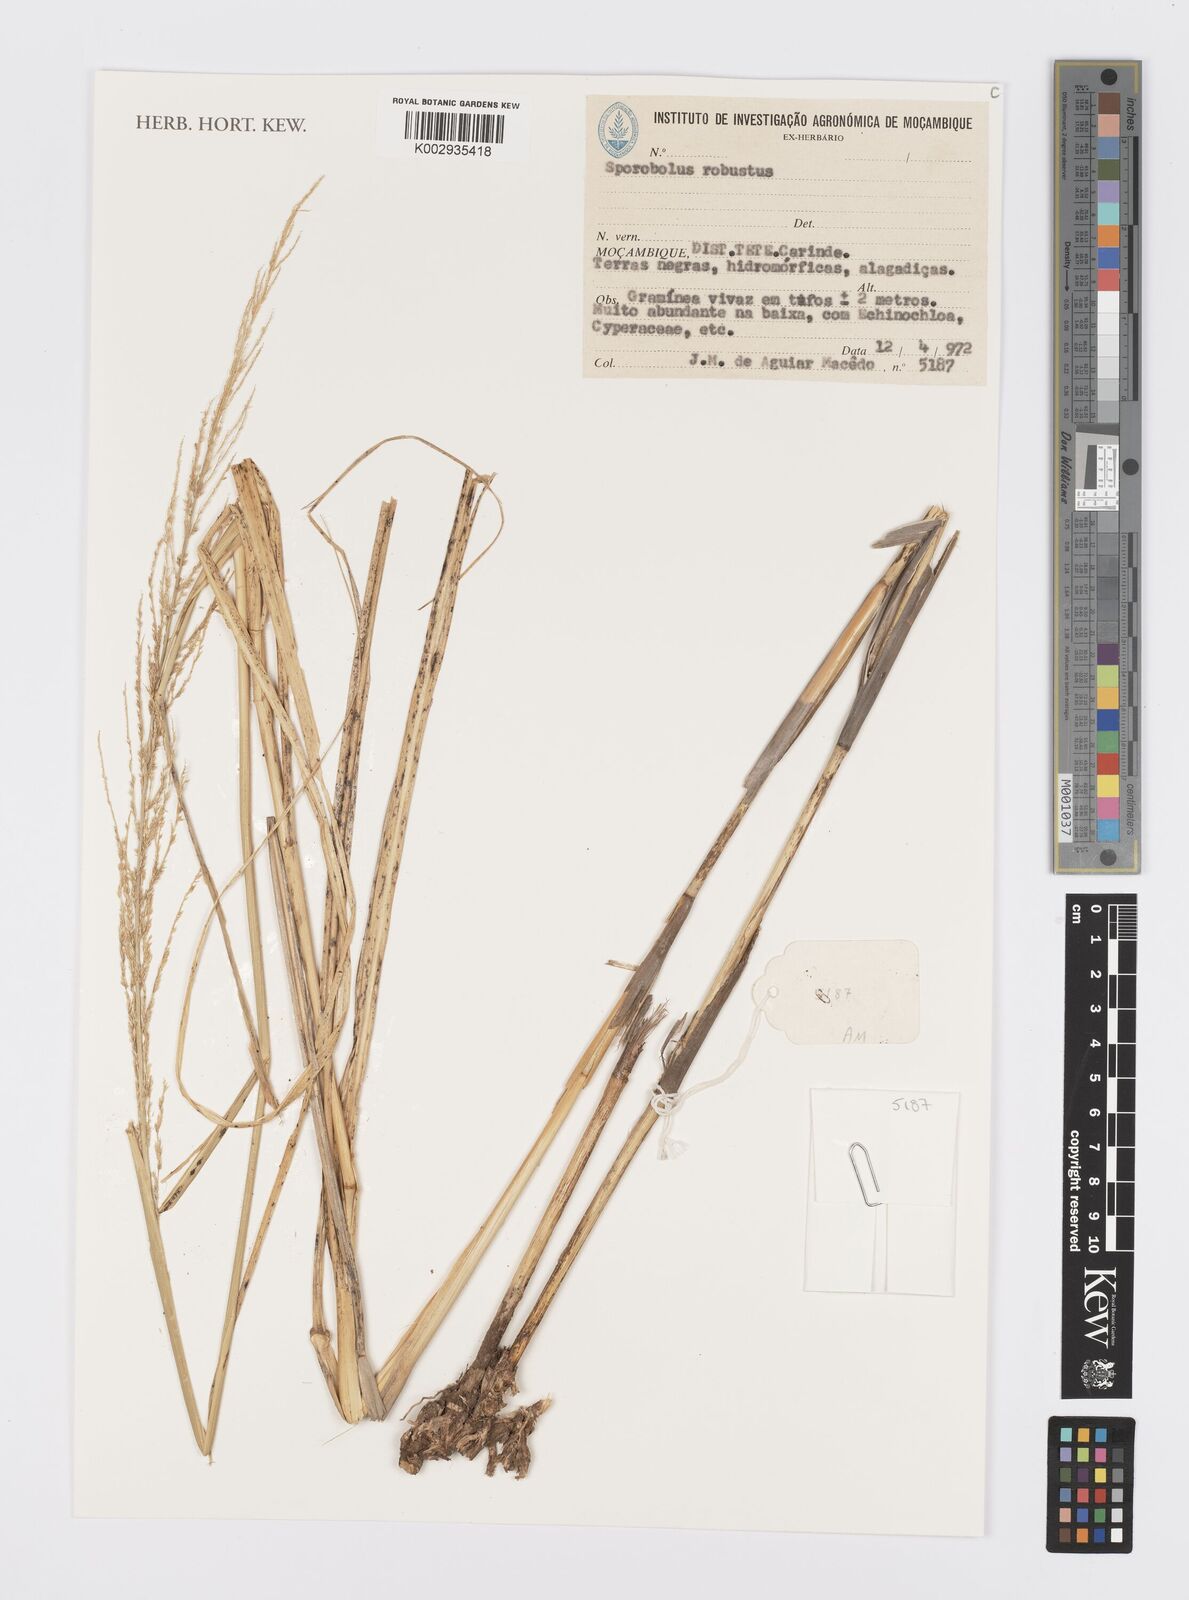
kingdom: Plantae
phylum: Tracheophyta
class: Liliopsida
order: Poales
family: Poaceae
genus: Sporobolus
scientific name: Sporobolus robustus
